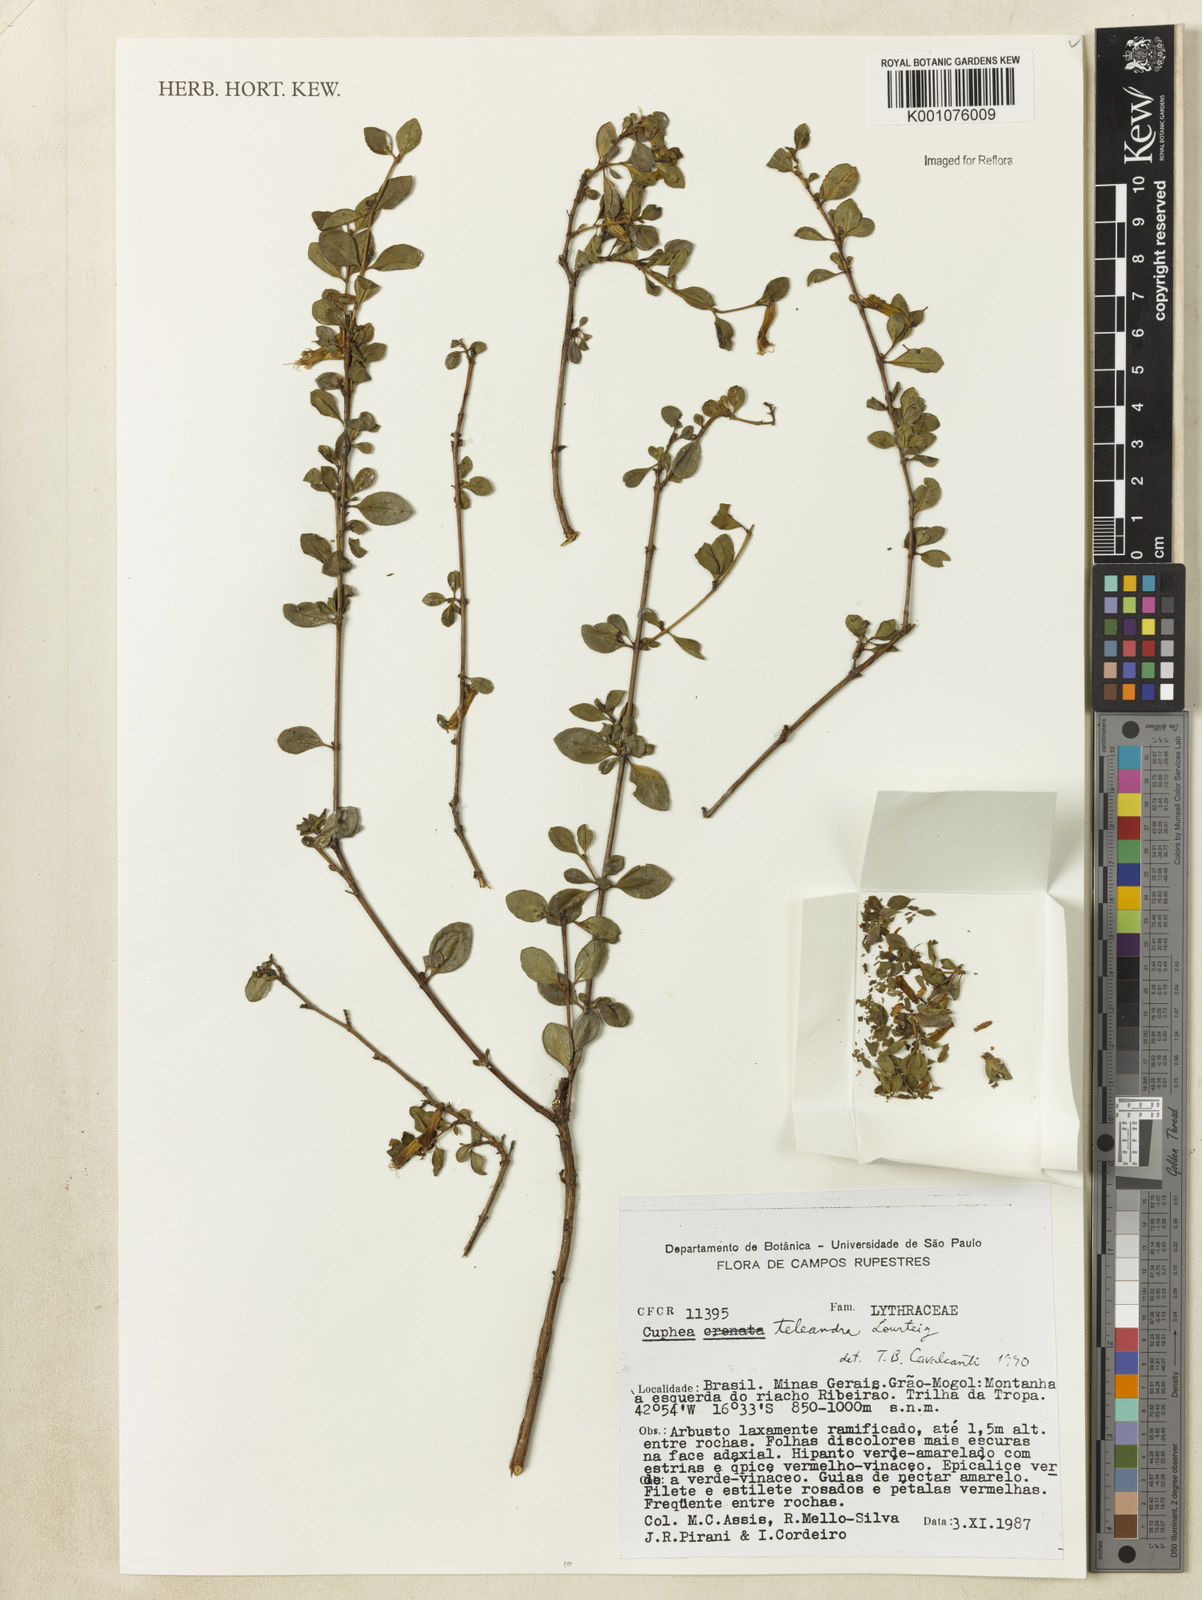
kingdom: Plantae
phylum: Tracheophyta
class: Magnoliopsida
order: Myrtales
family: Lythraceae
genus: Cuphea
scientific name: Cuphea teleandra
